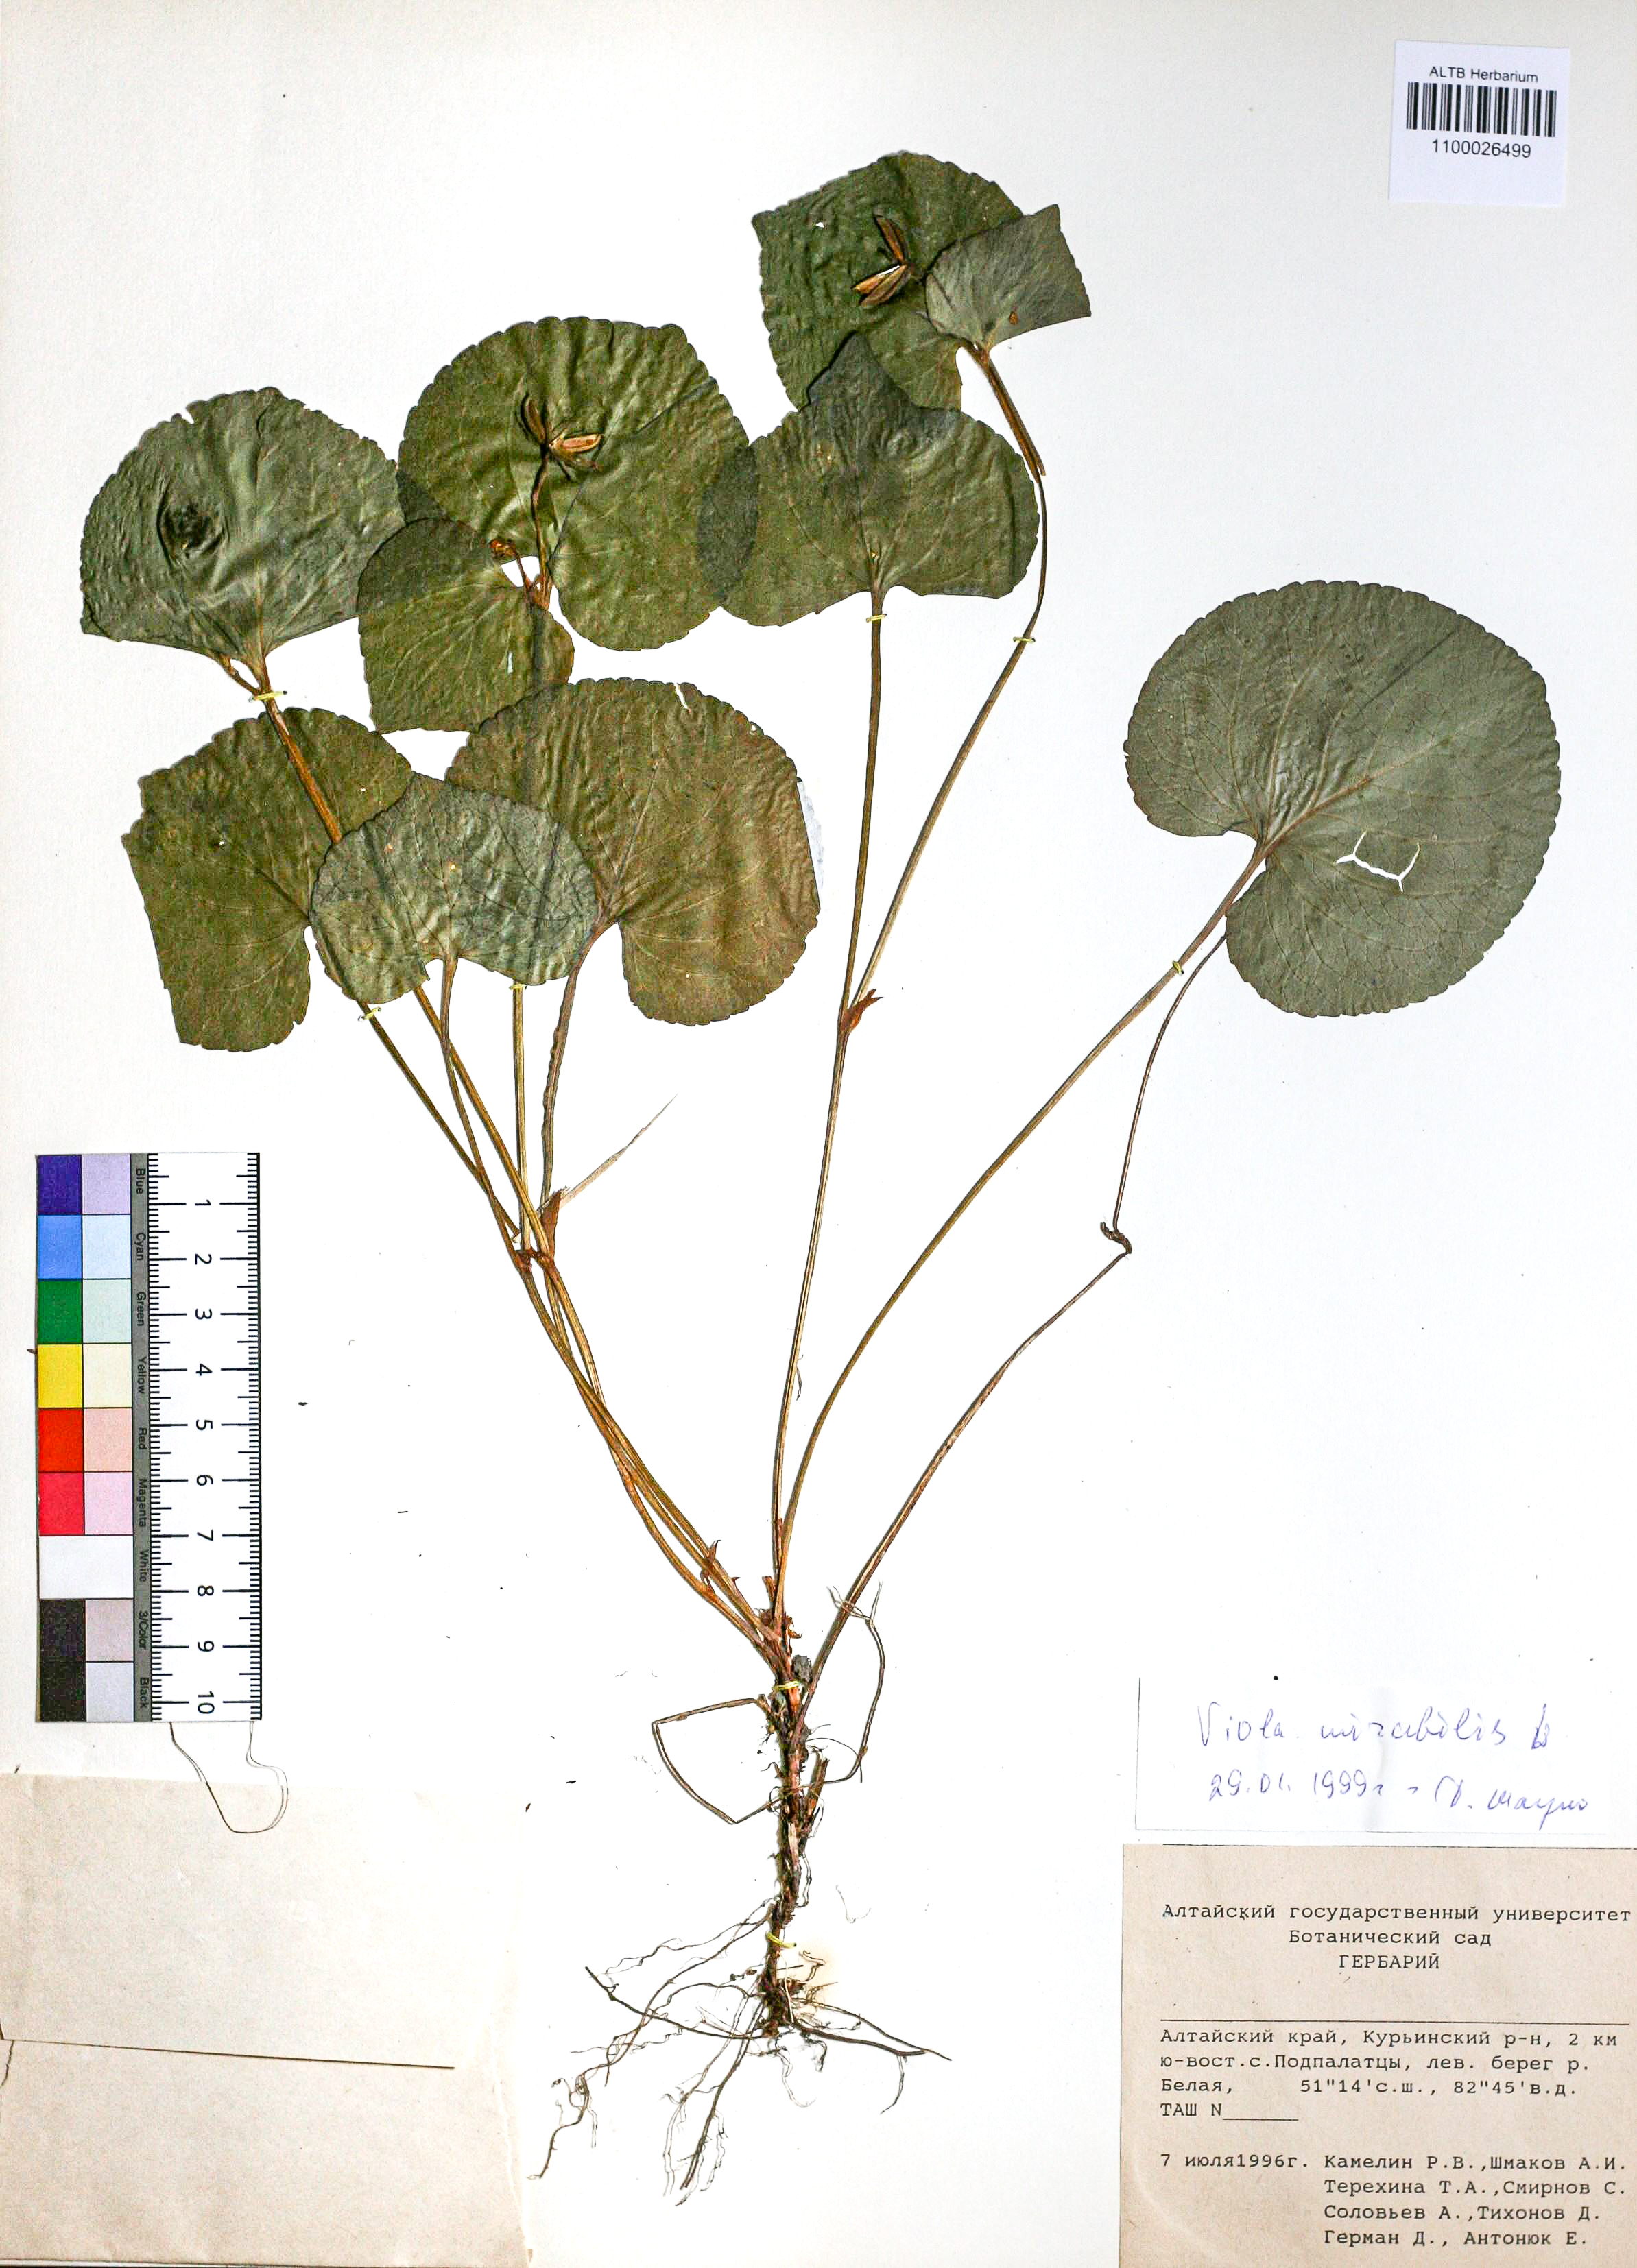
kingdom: Plantae
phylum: Tracheophyta
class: Magnoliopsida
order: Malpighiales
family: Violaceae
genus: Viola
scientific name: Viola mirabilis
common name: Wonder violet
